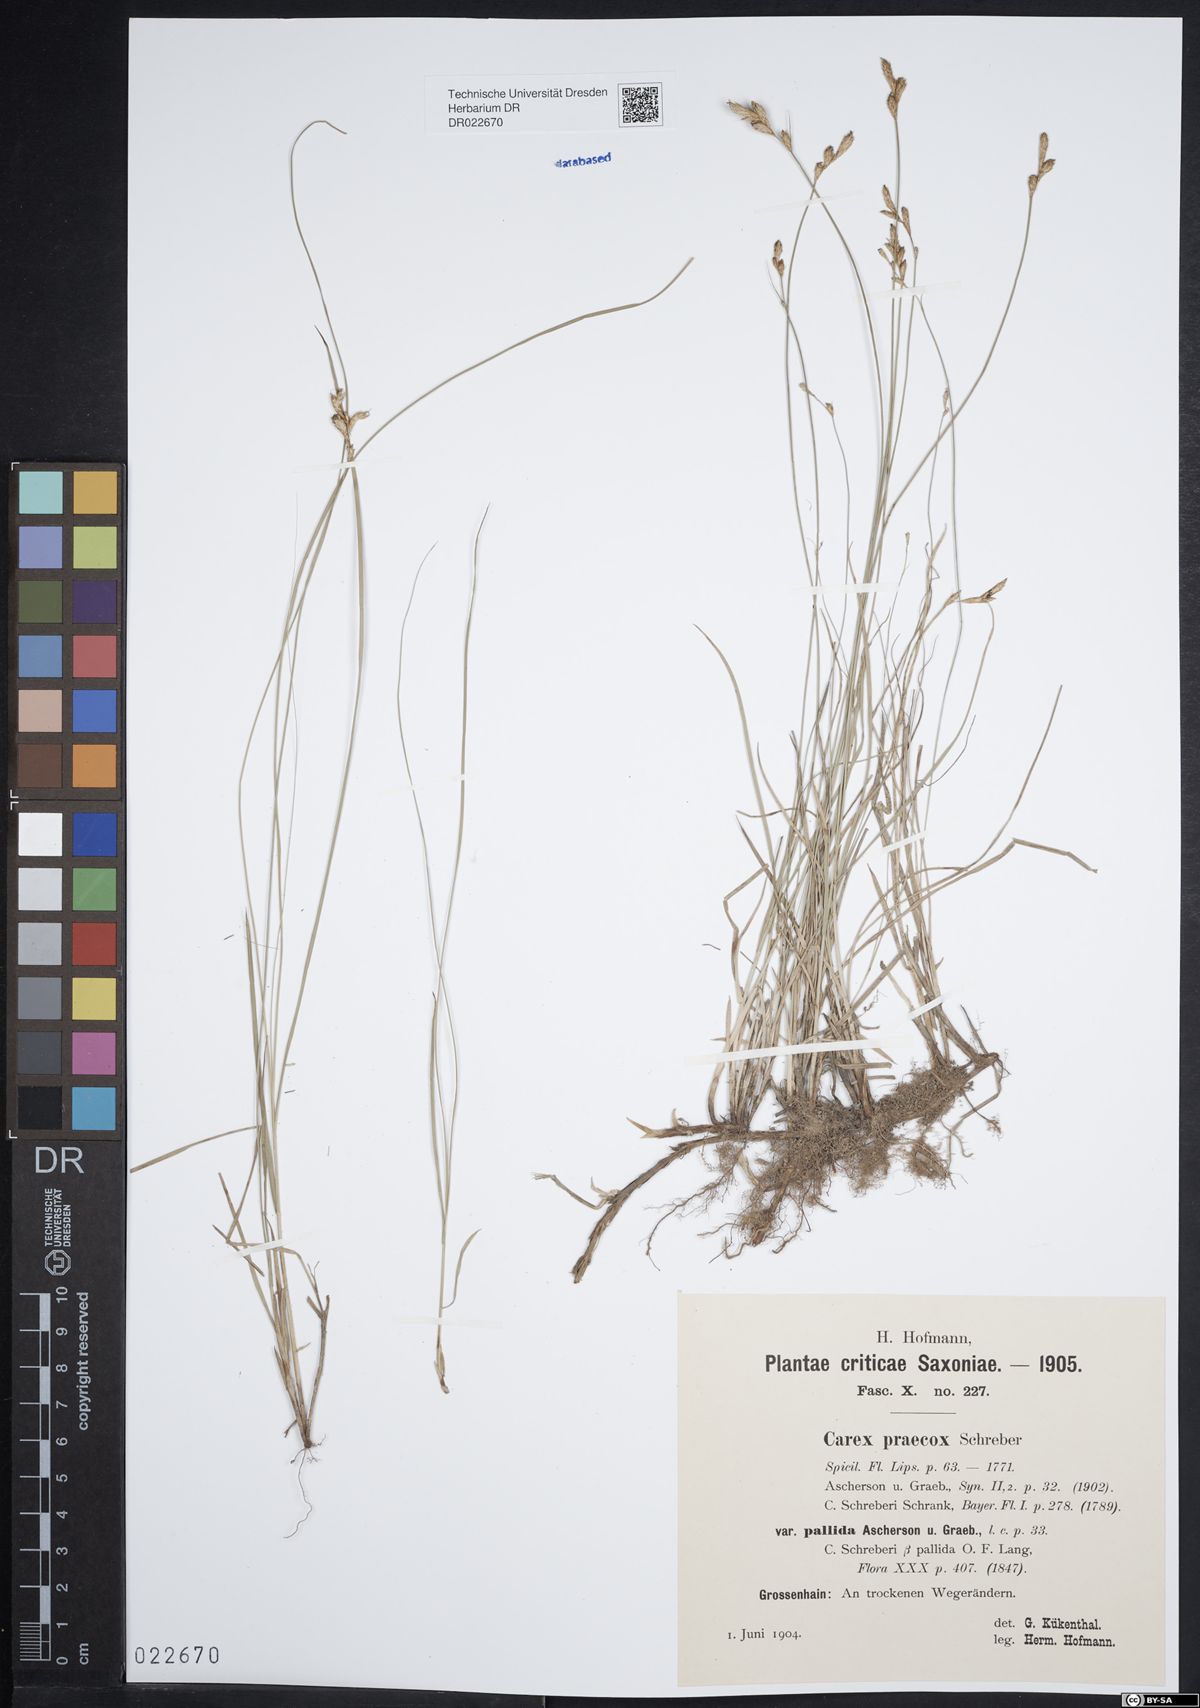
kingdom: Plantae
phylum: Tracheophyta
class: Liliopsida
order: Poales
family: Cyperaceae
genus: Carex
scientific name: Carex praecox
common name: Early sedge
